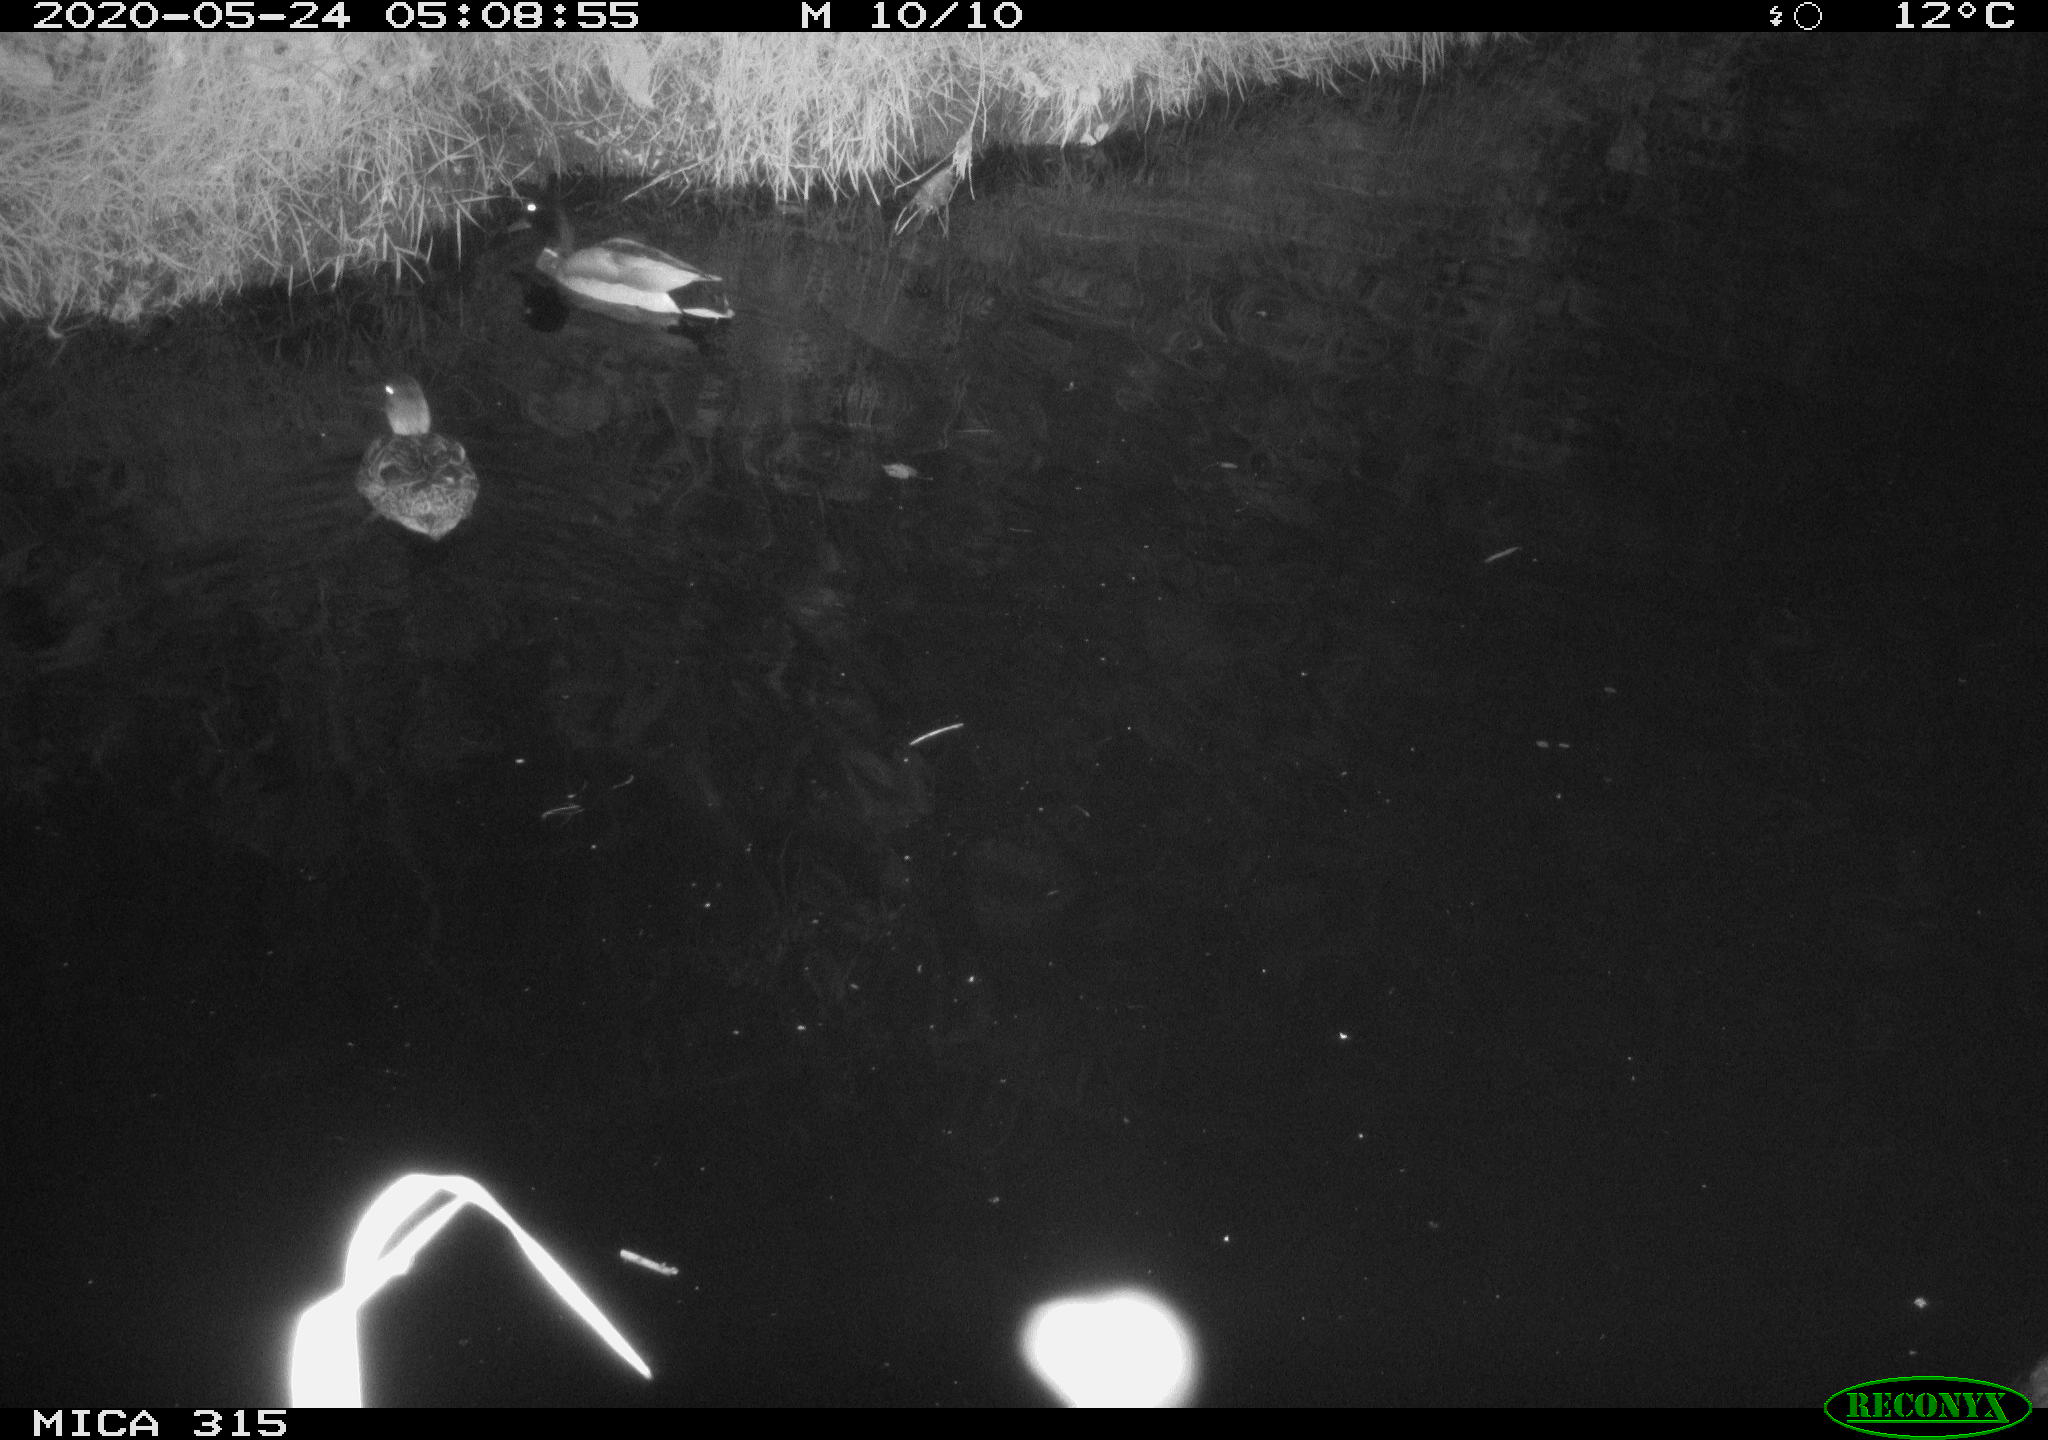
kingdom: Animalia
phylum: Chordata
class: Aves
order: Anseriformes
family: Anatidae
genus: Anas
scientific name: Anas platyrhynchos
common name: Mallard
